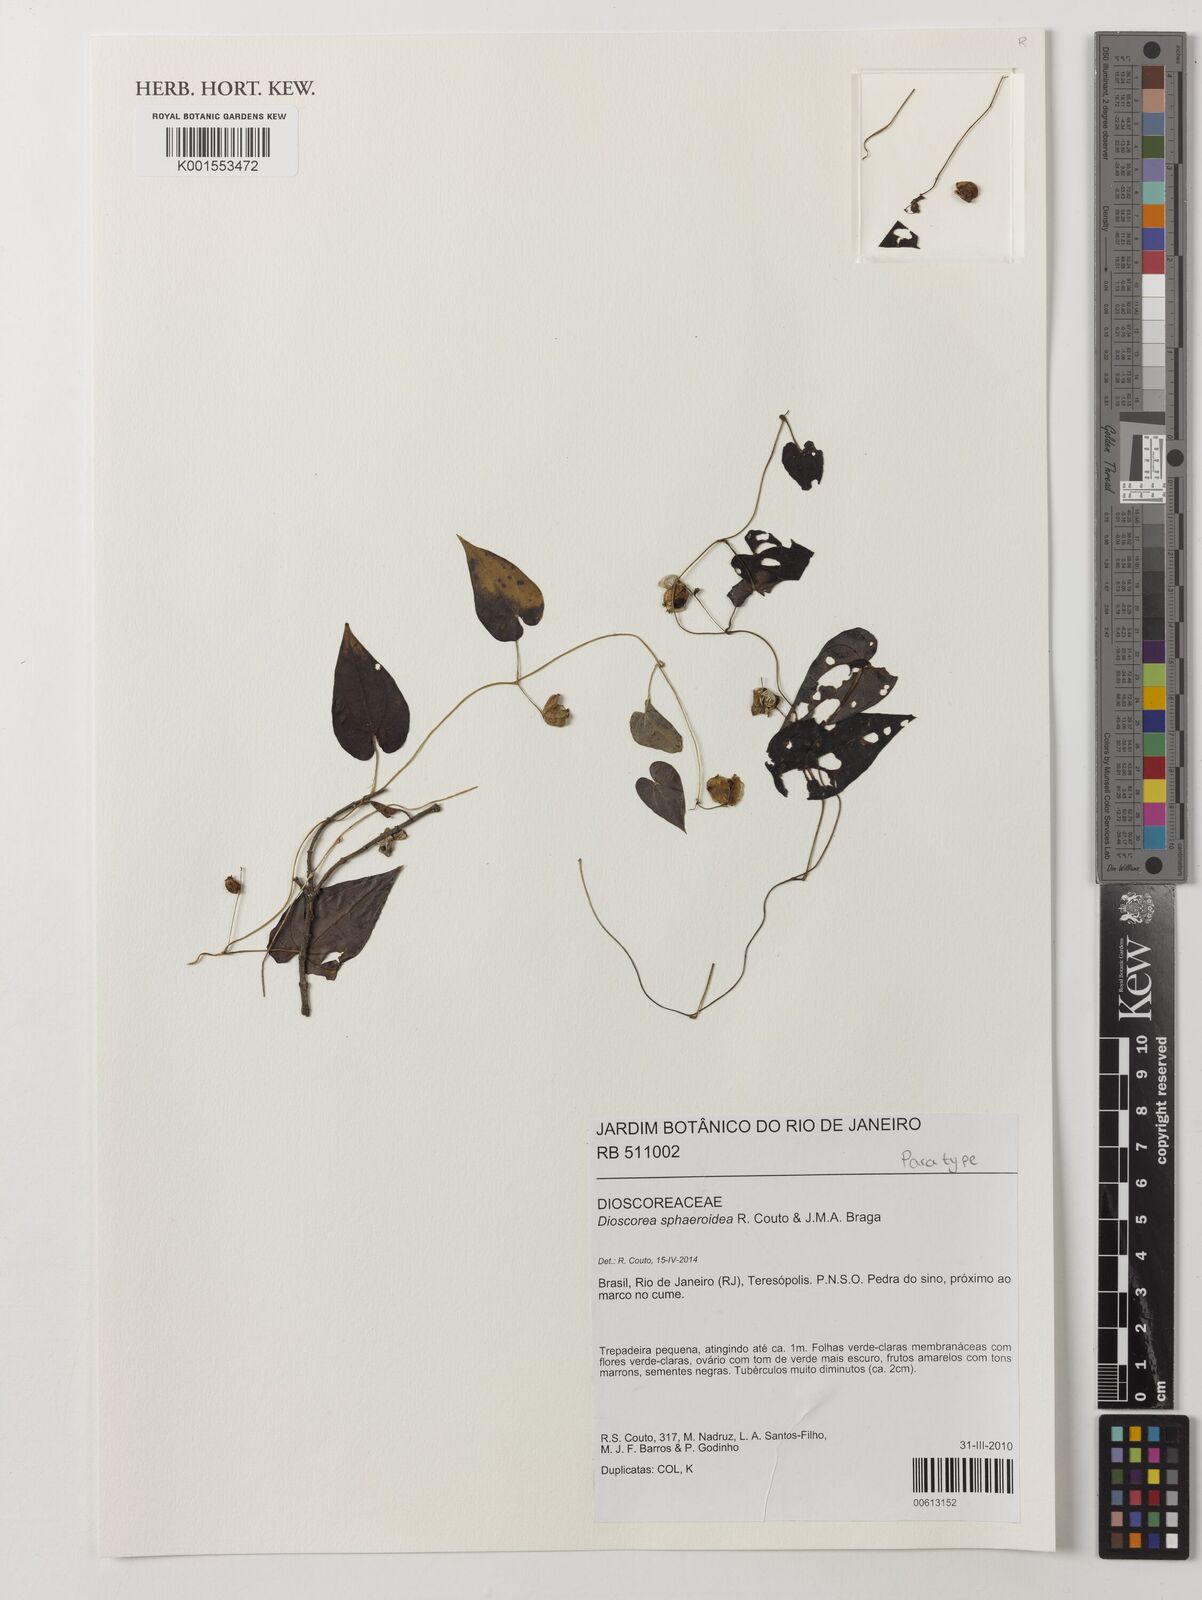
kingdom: Plantae
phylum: Tracheophyta
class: Liliopsida
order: Dioscoreales
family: Dioscoreaceae
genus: Dioscorea
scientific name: Dioscorea sphaeroidea
